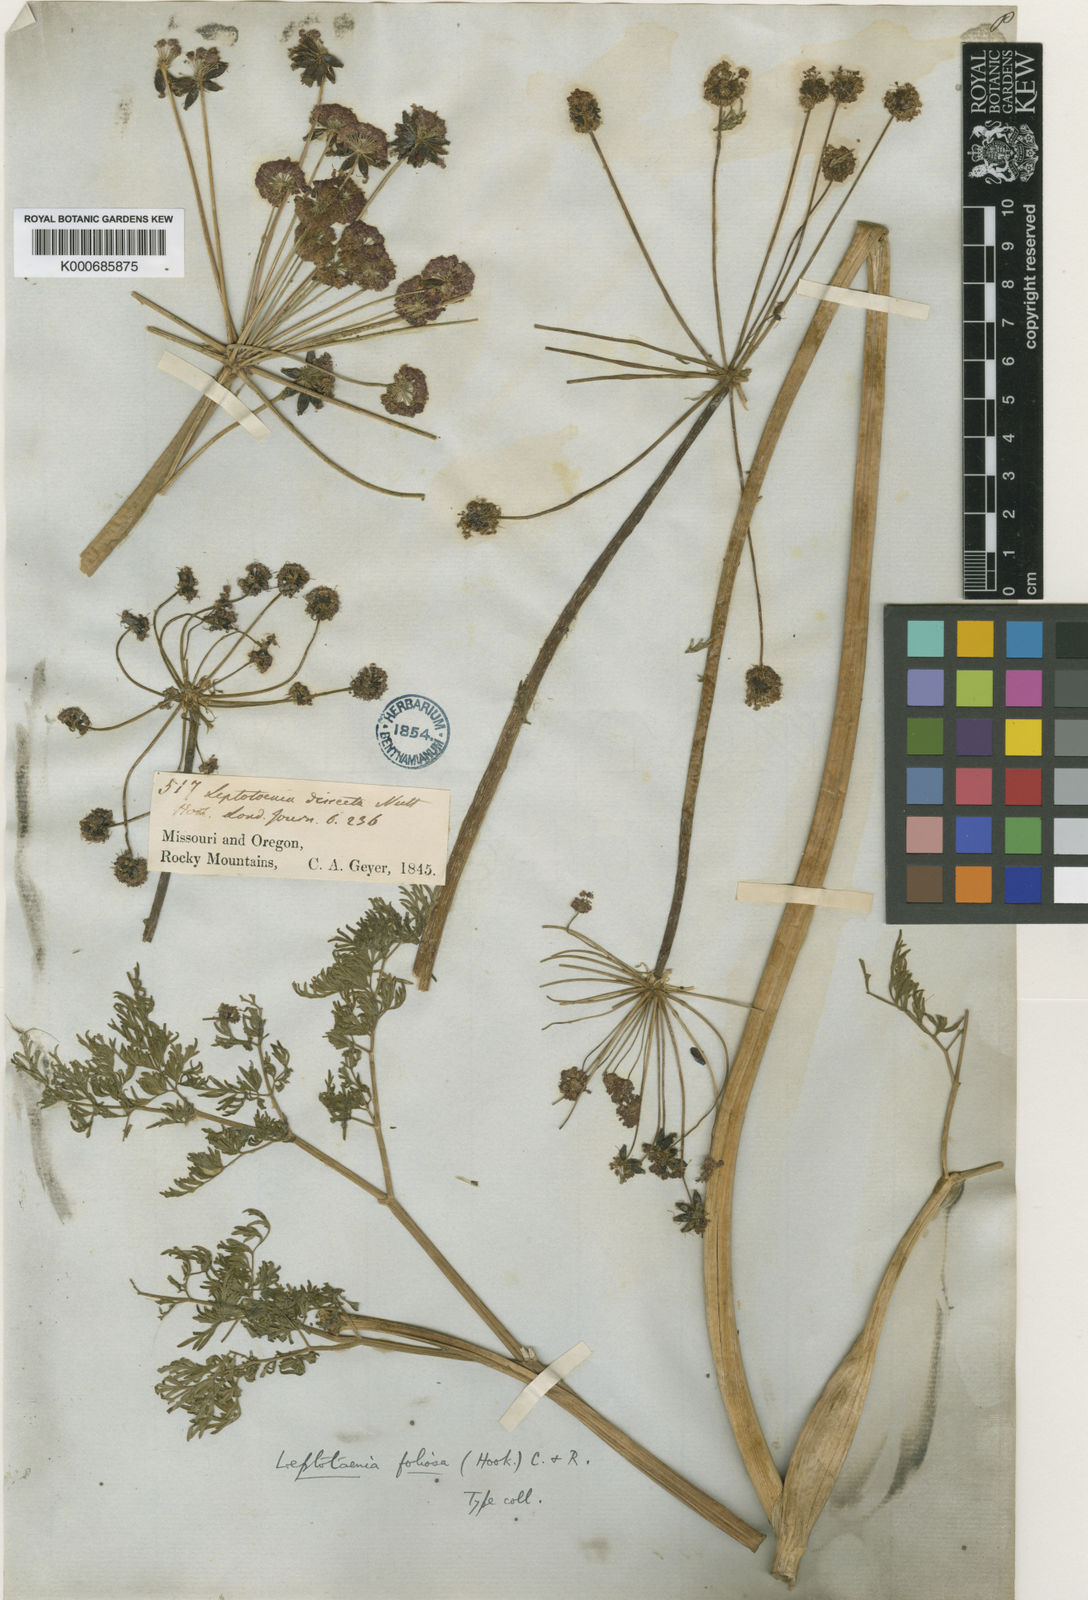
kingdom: Plantae
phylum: Tracheophyta
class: Magnoliopsida
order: Apiales
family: Apiaceae
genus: Lomatium
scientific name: Lomatium dissectum
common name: Lomatium
